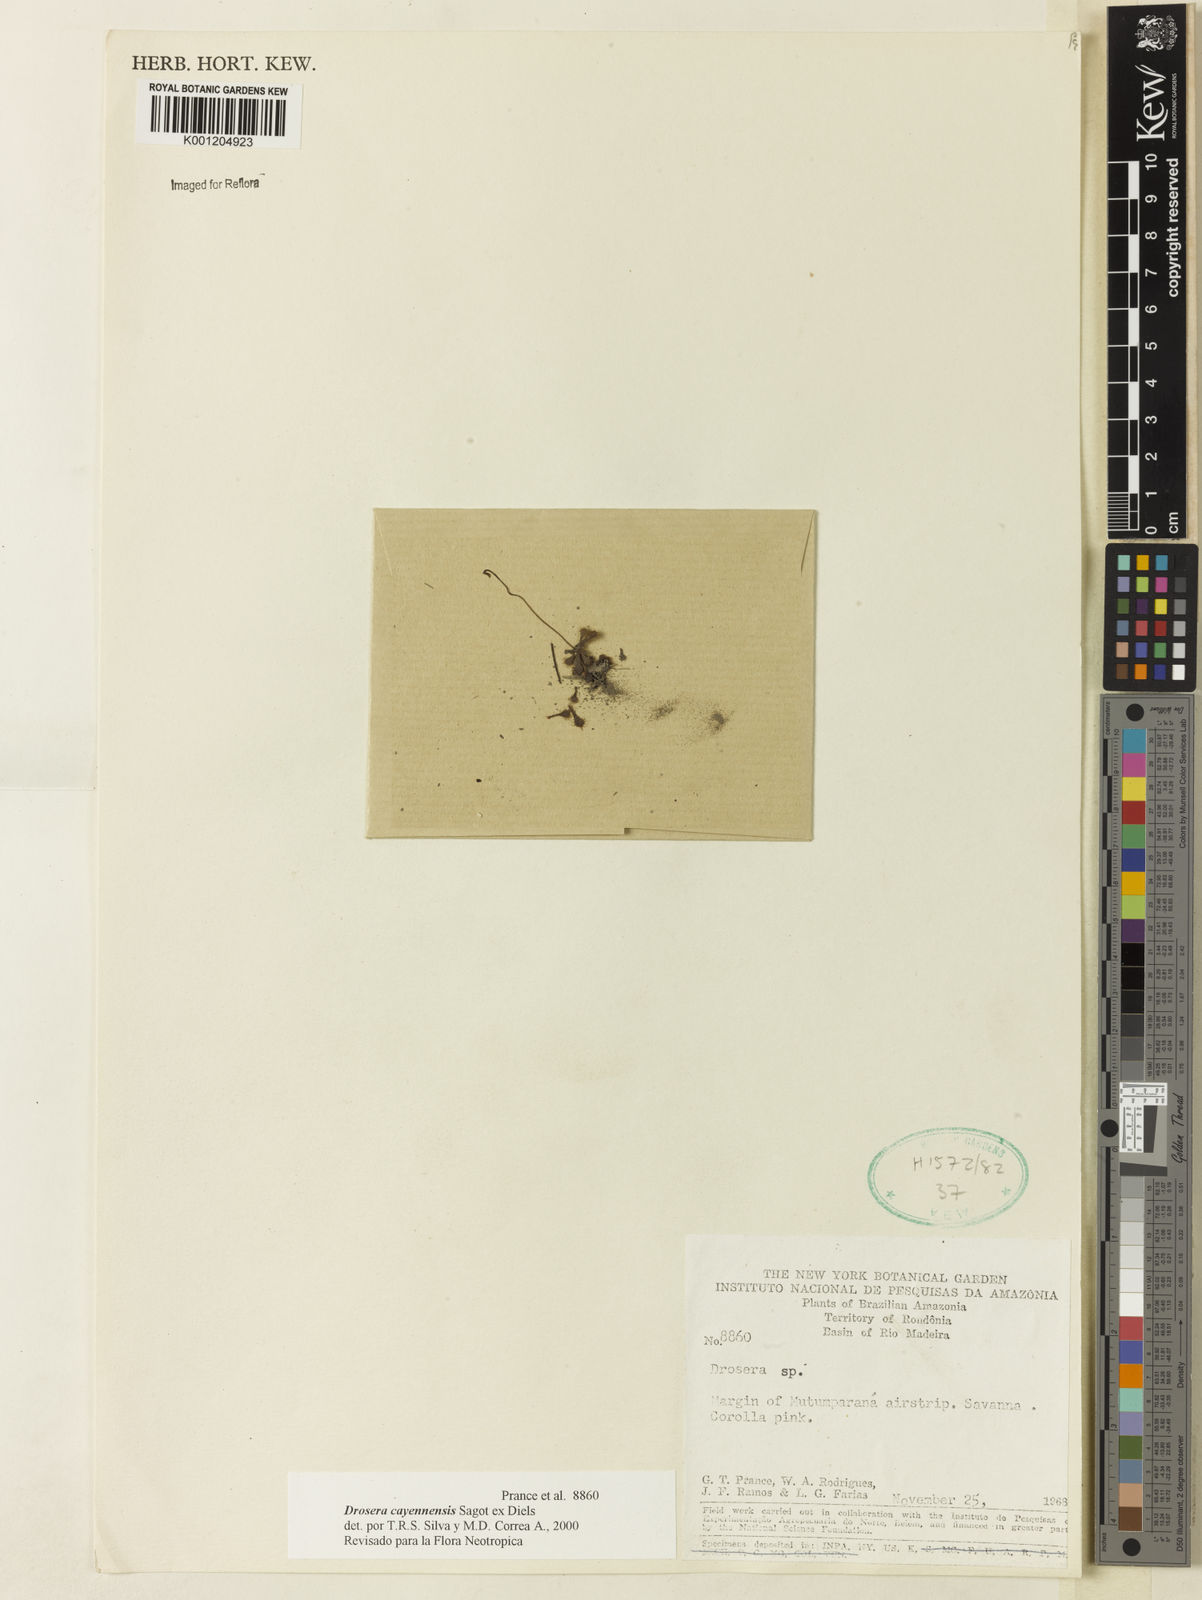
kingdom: Plantae
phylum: Tracheophyta
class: Magnoliopsida
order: Caryophyllales
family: Droseraceae
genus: Drosera
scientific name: Drosera cayennensis
